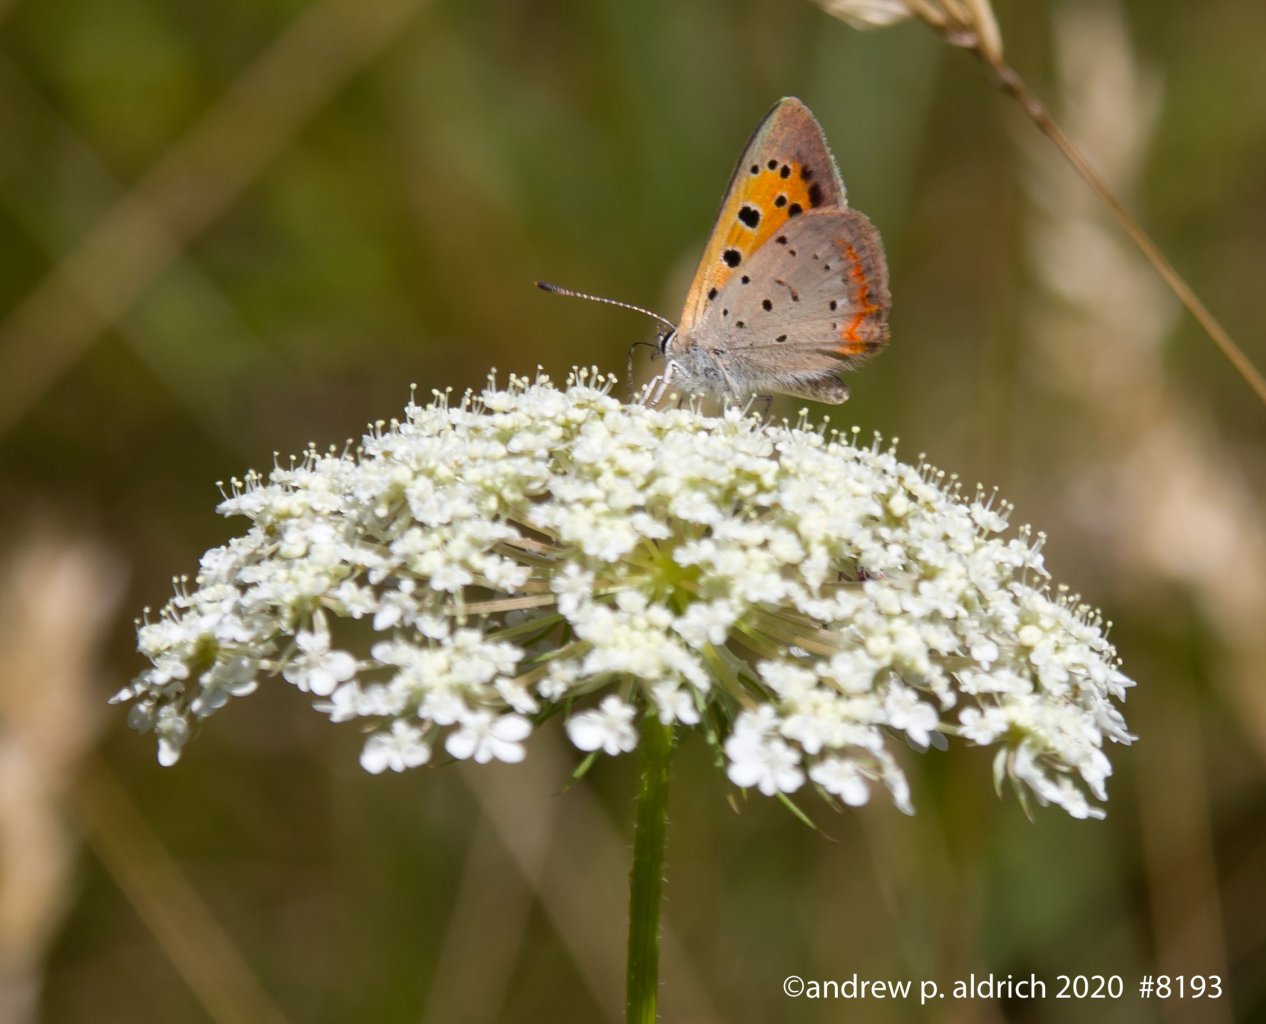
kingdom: Animalia
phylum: Arthropoda
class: Insecta
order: Lepidoptera
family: Lycaenidae
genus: Lycaena
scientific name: Lycaena phlaeas
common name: American Copper
